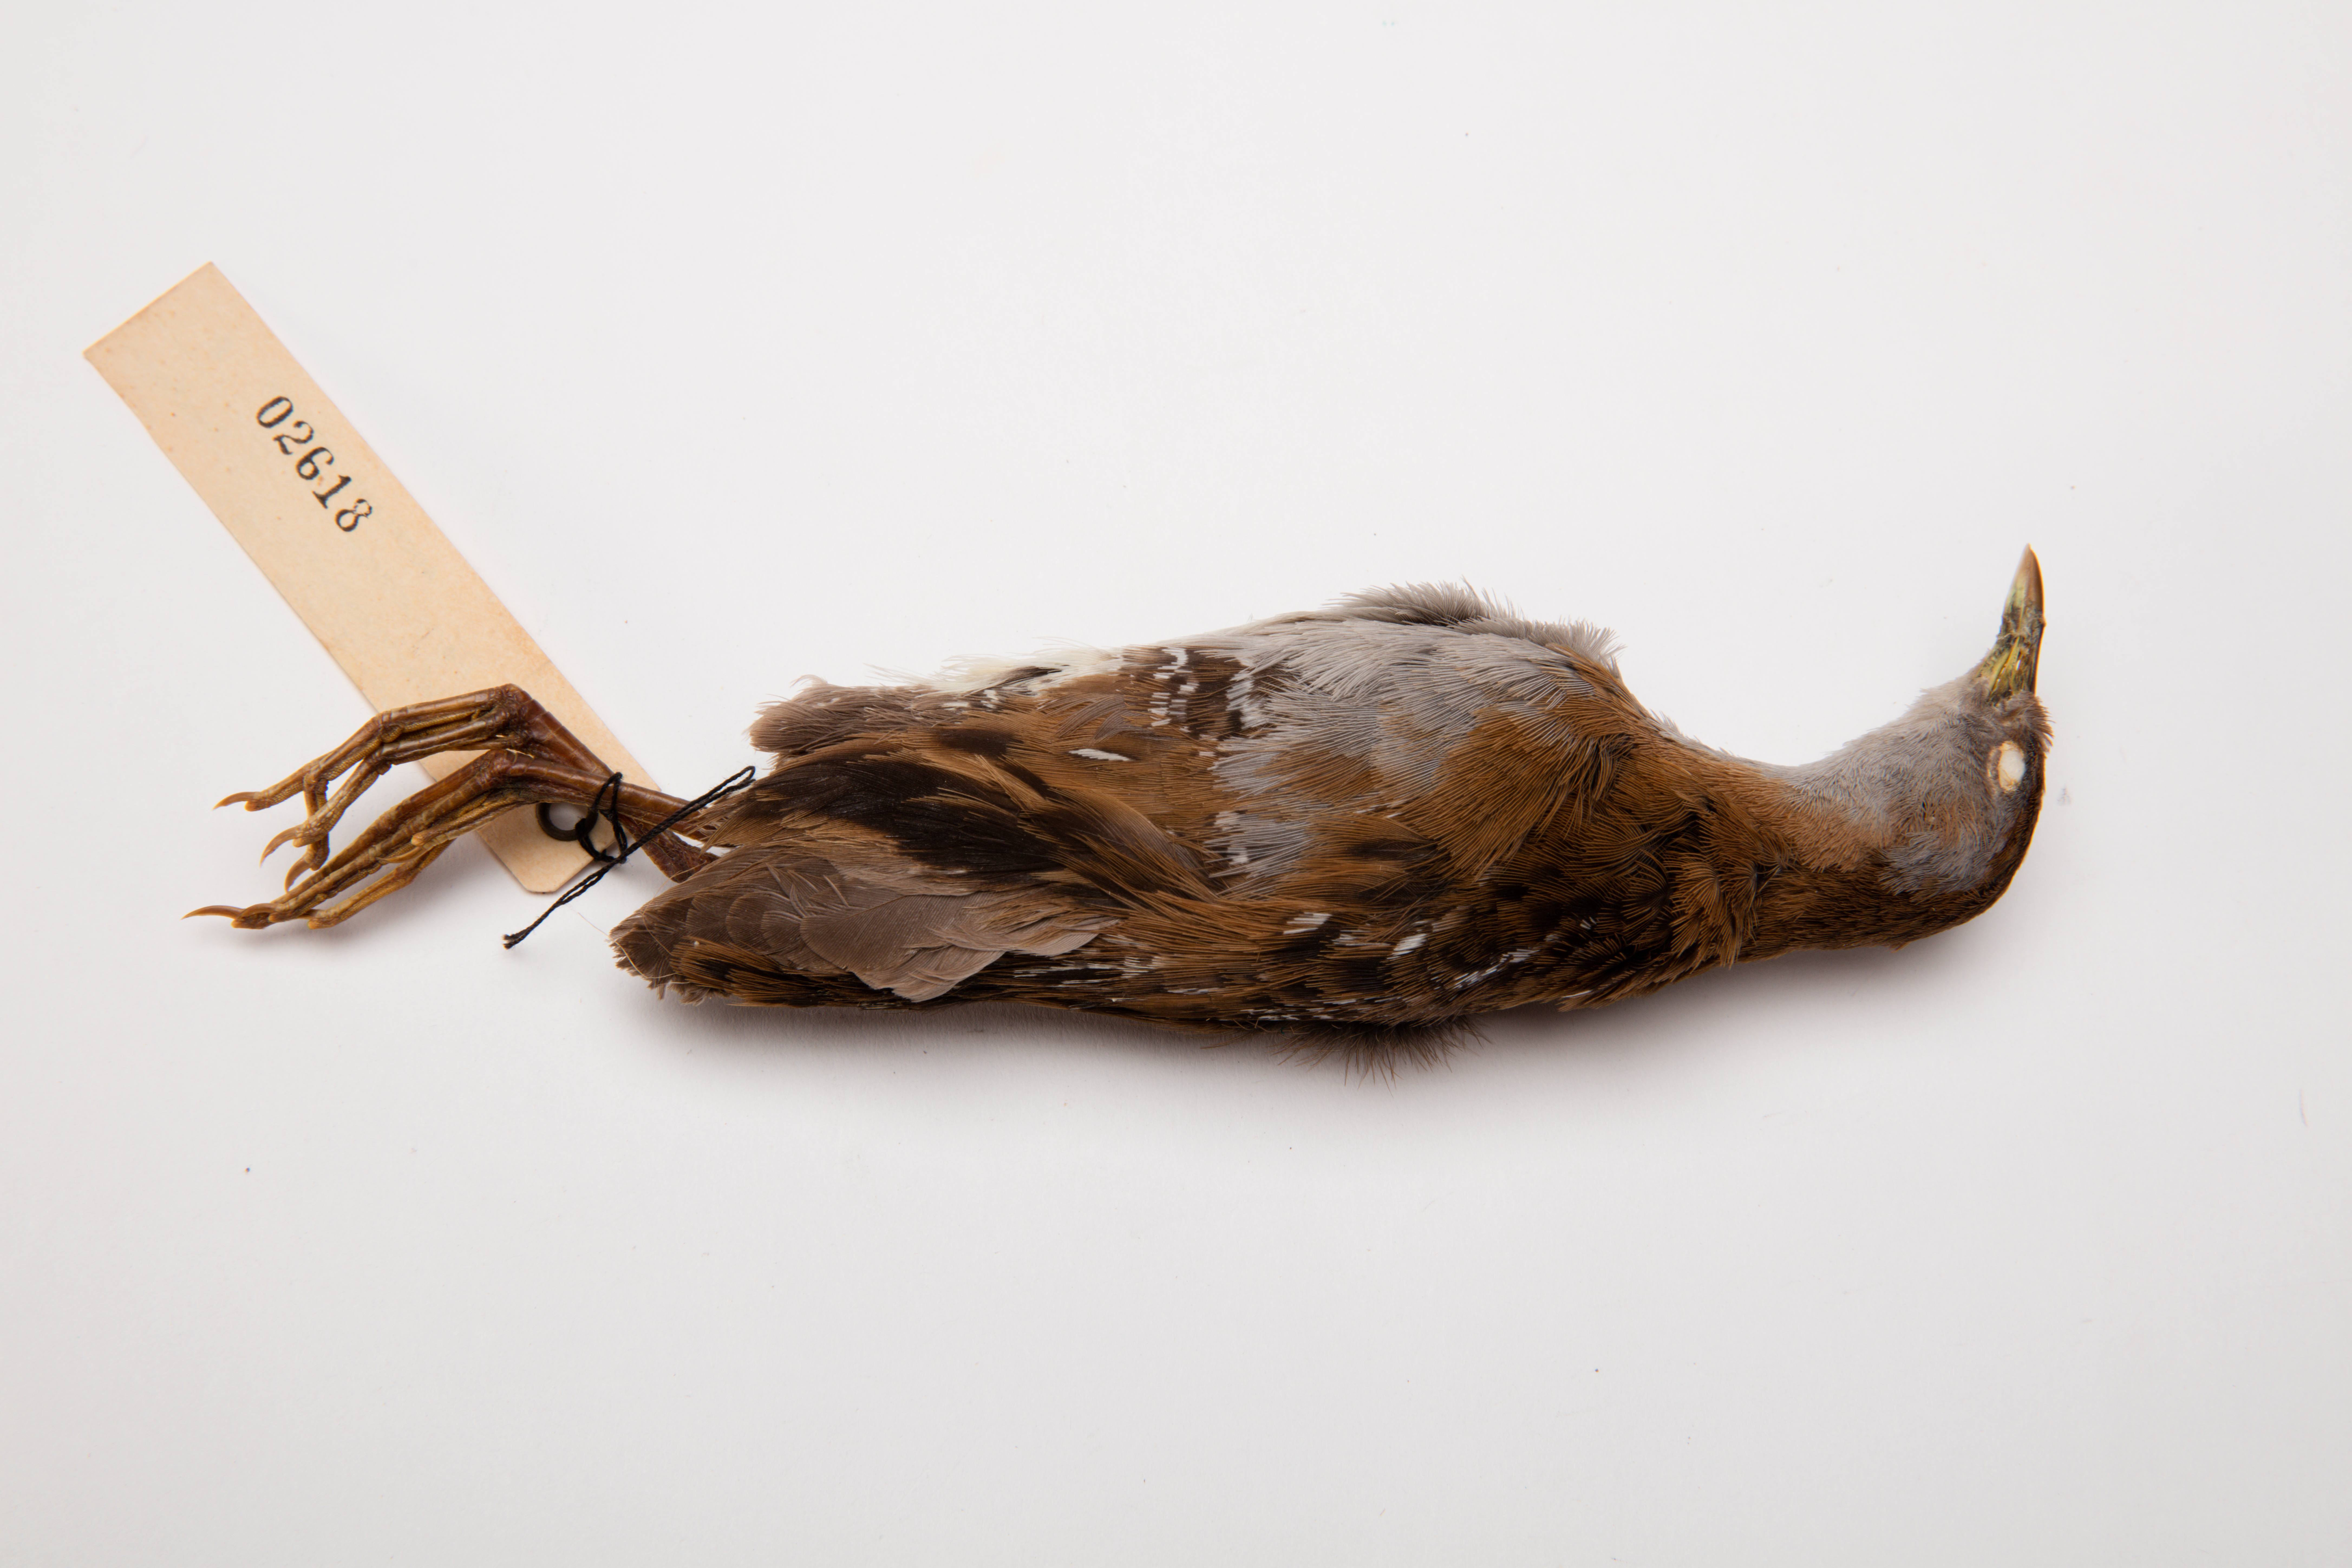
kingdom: Animalia
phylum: Chordata
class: Aves
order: Gruiformes
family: Rallidae
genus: Porzana
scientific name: Porzana pusilla
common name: Baillon's crake
